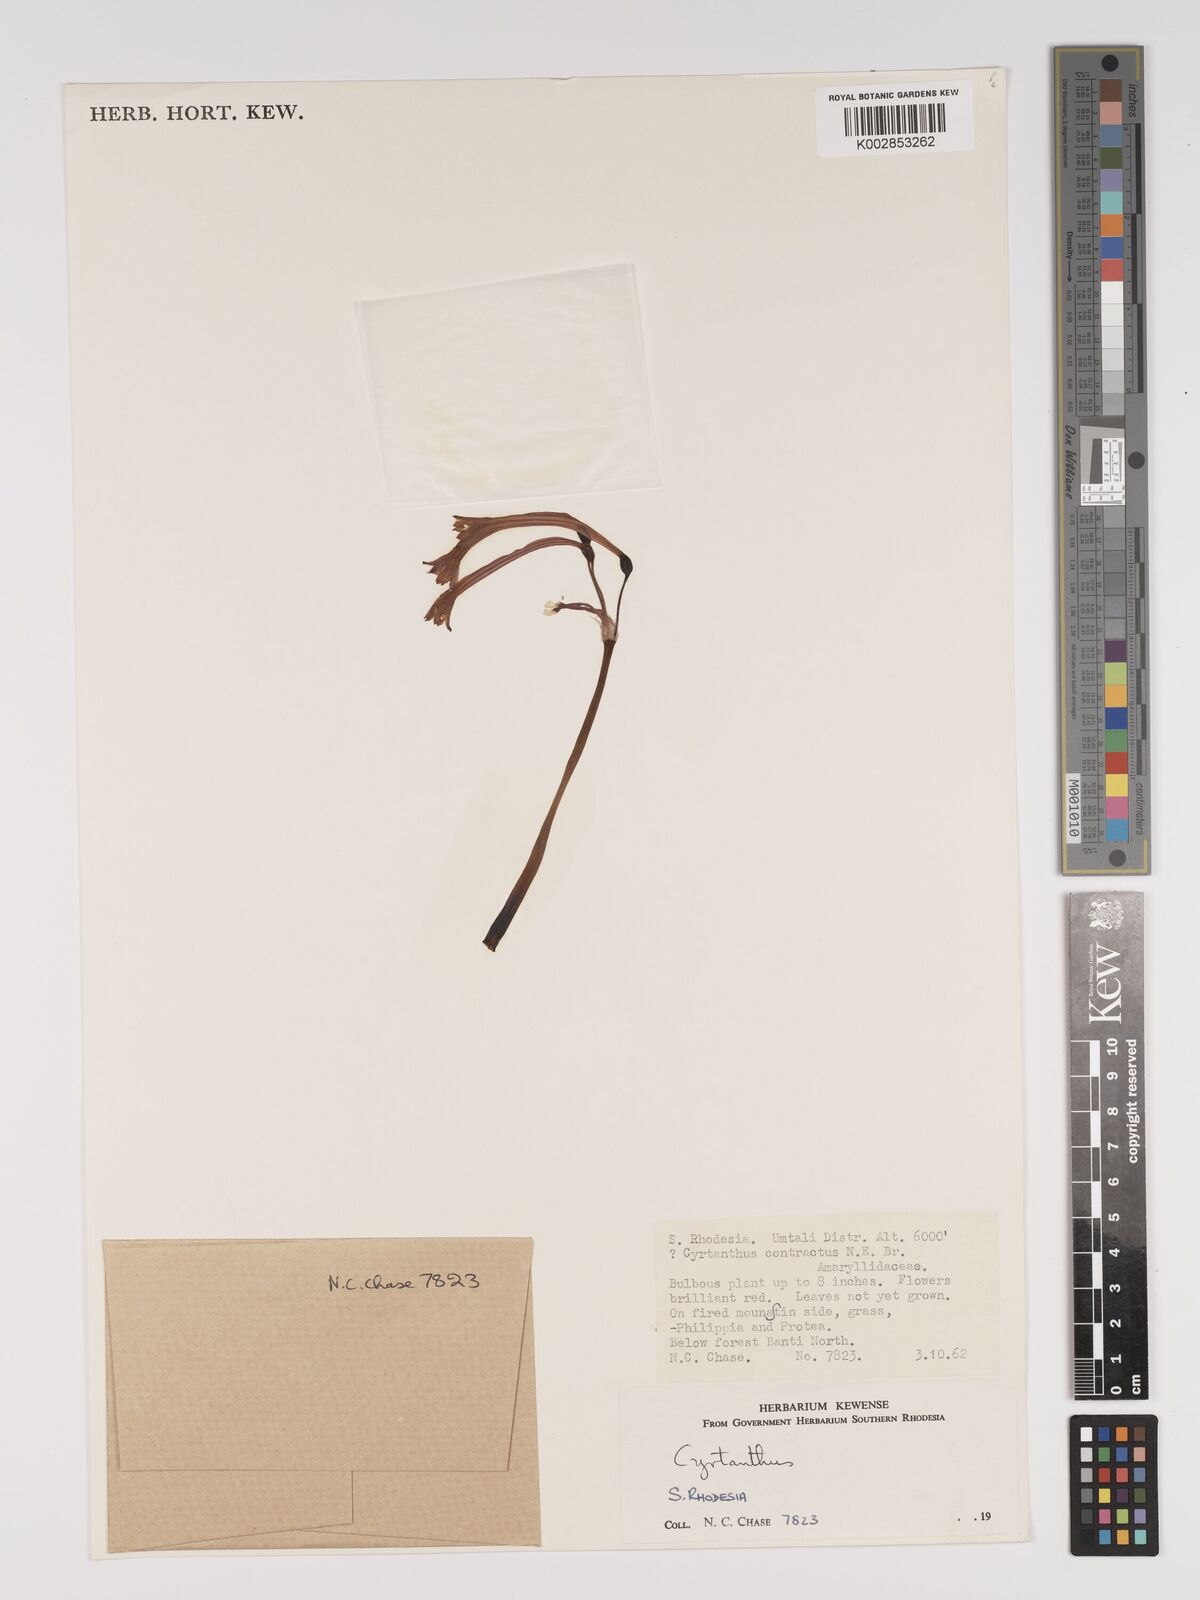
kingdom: Plantae
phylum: Tracheophyta
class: Liliopsida
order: Asparagales
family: Amaryllidaceae
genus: Cyrtanthus
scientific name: Cyrtanthus
